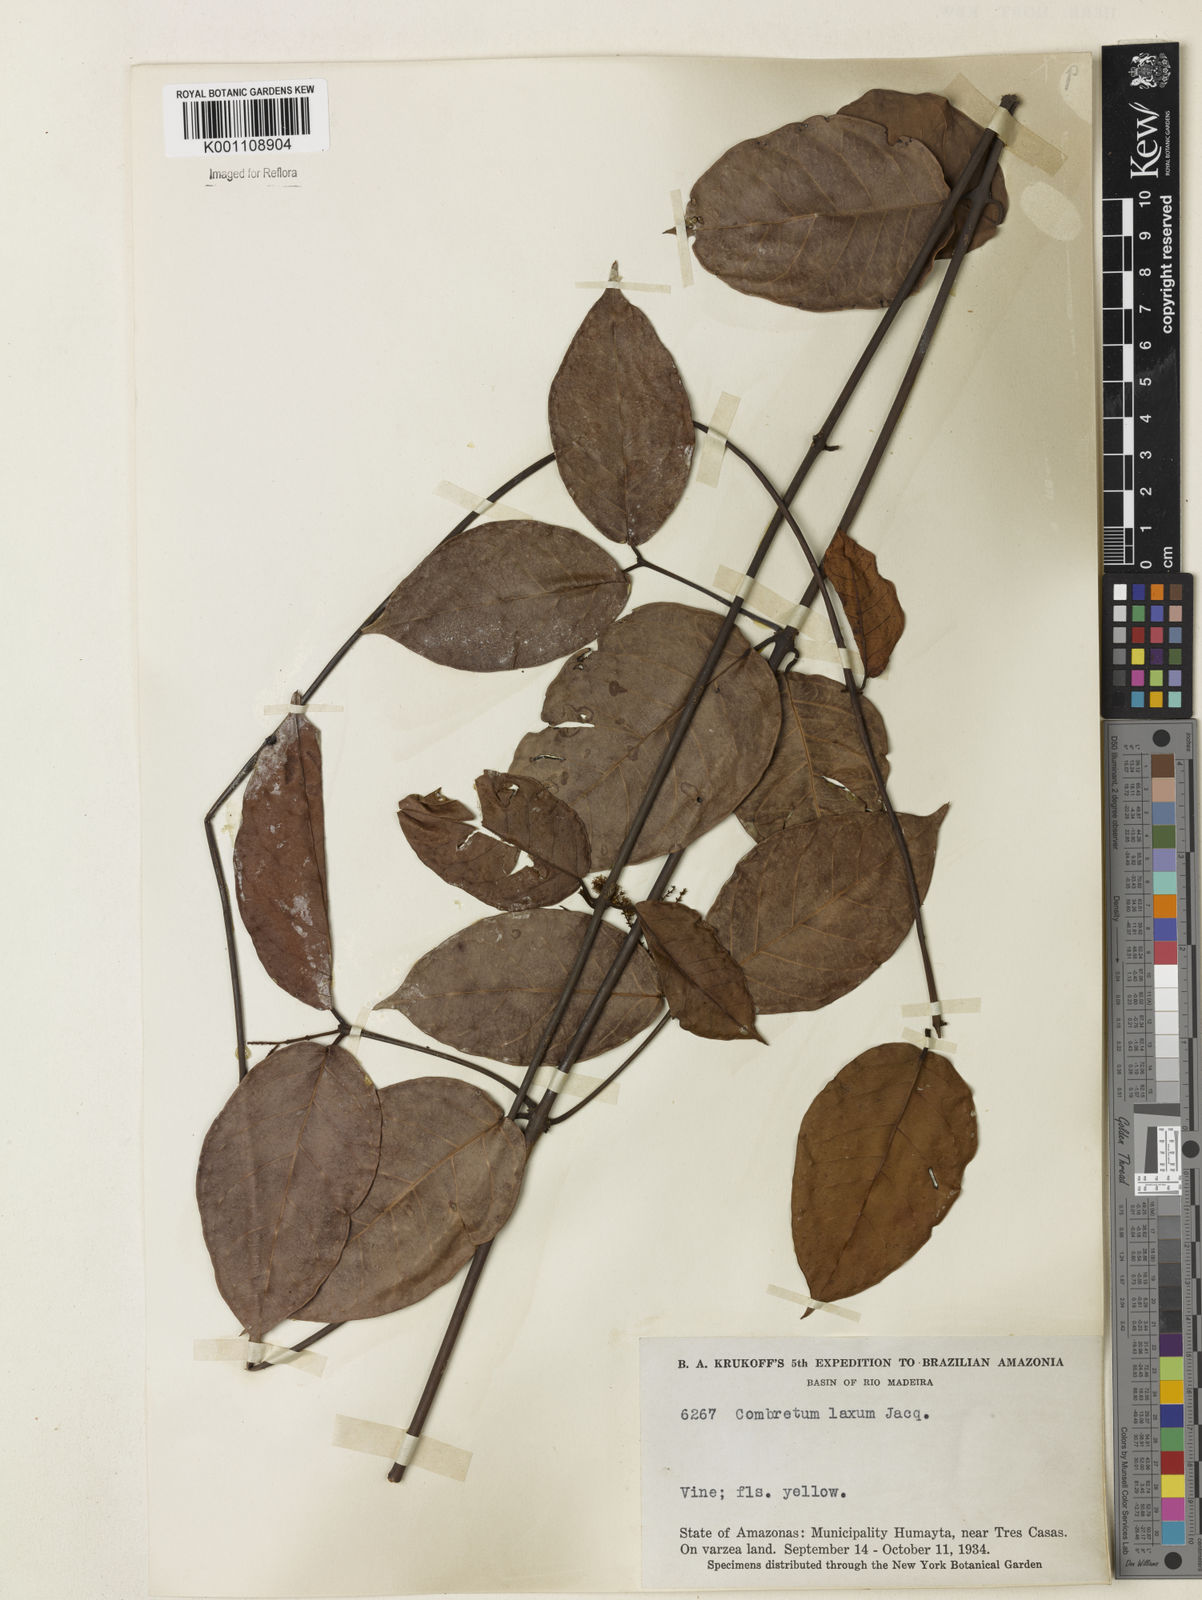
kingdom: Plantae
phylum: Tracheophyta
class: Magnoliopsida
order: Myrtales
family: Combretaceae
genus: Combretum
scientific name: Combretum laxum
